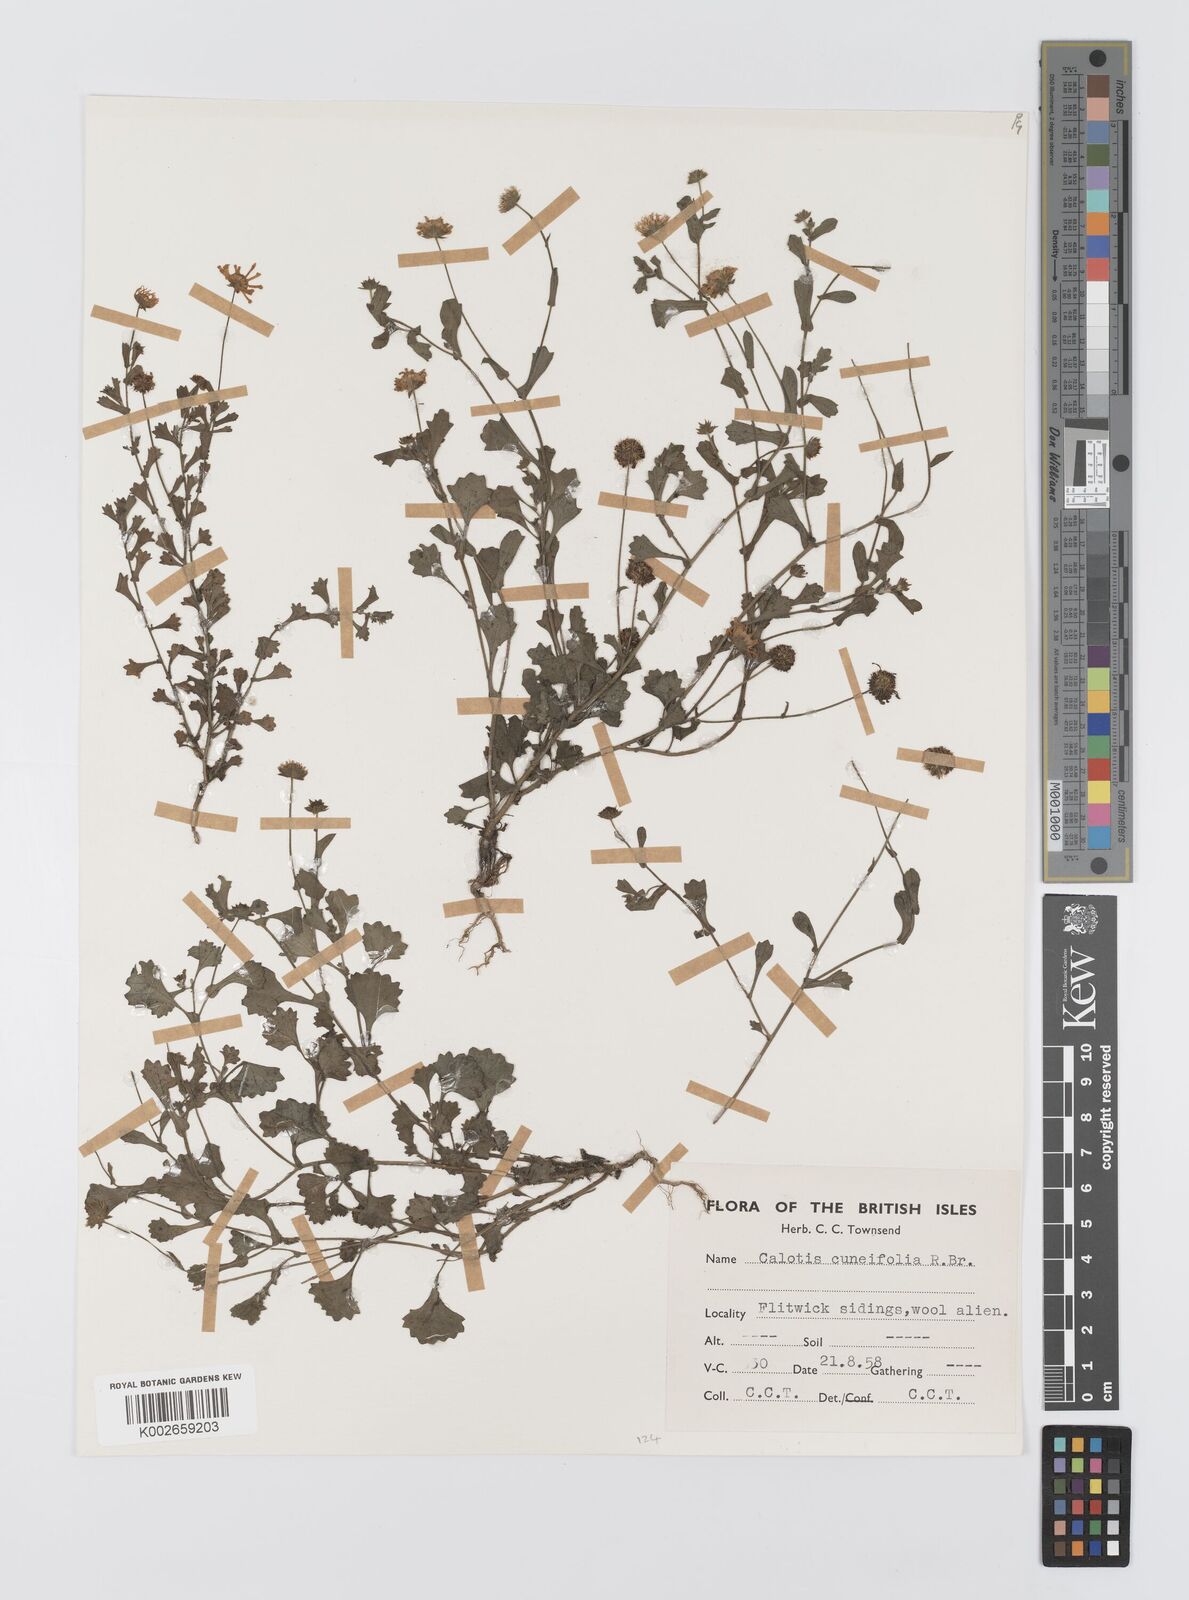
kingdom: Plantae
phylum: Tracheophyta
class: Magnoliopsida
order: Asterales
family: Asteraceae
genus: Calotis
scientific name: Calotis cuneifolia
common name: Bur-daisy
